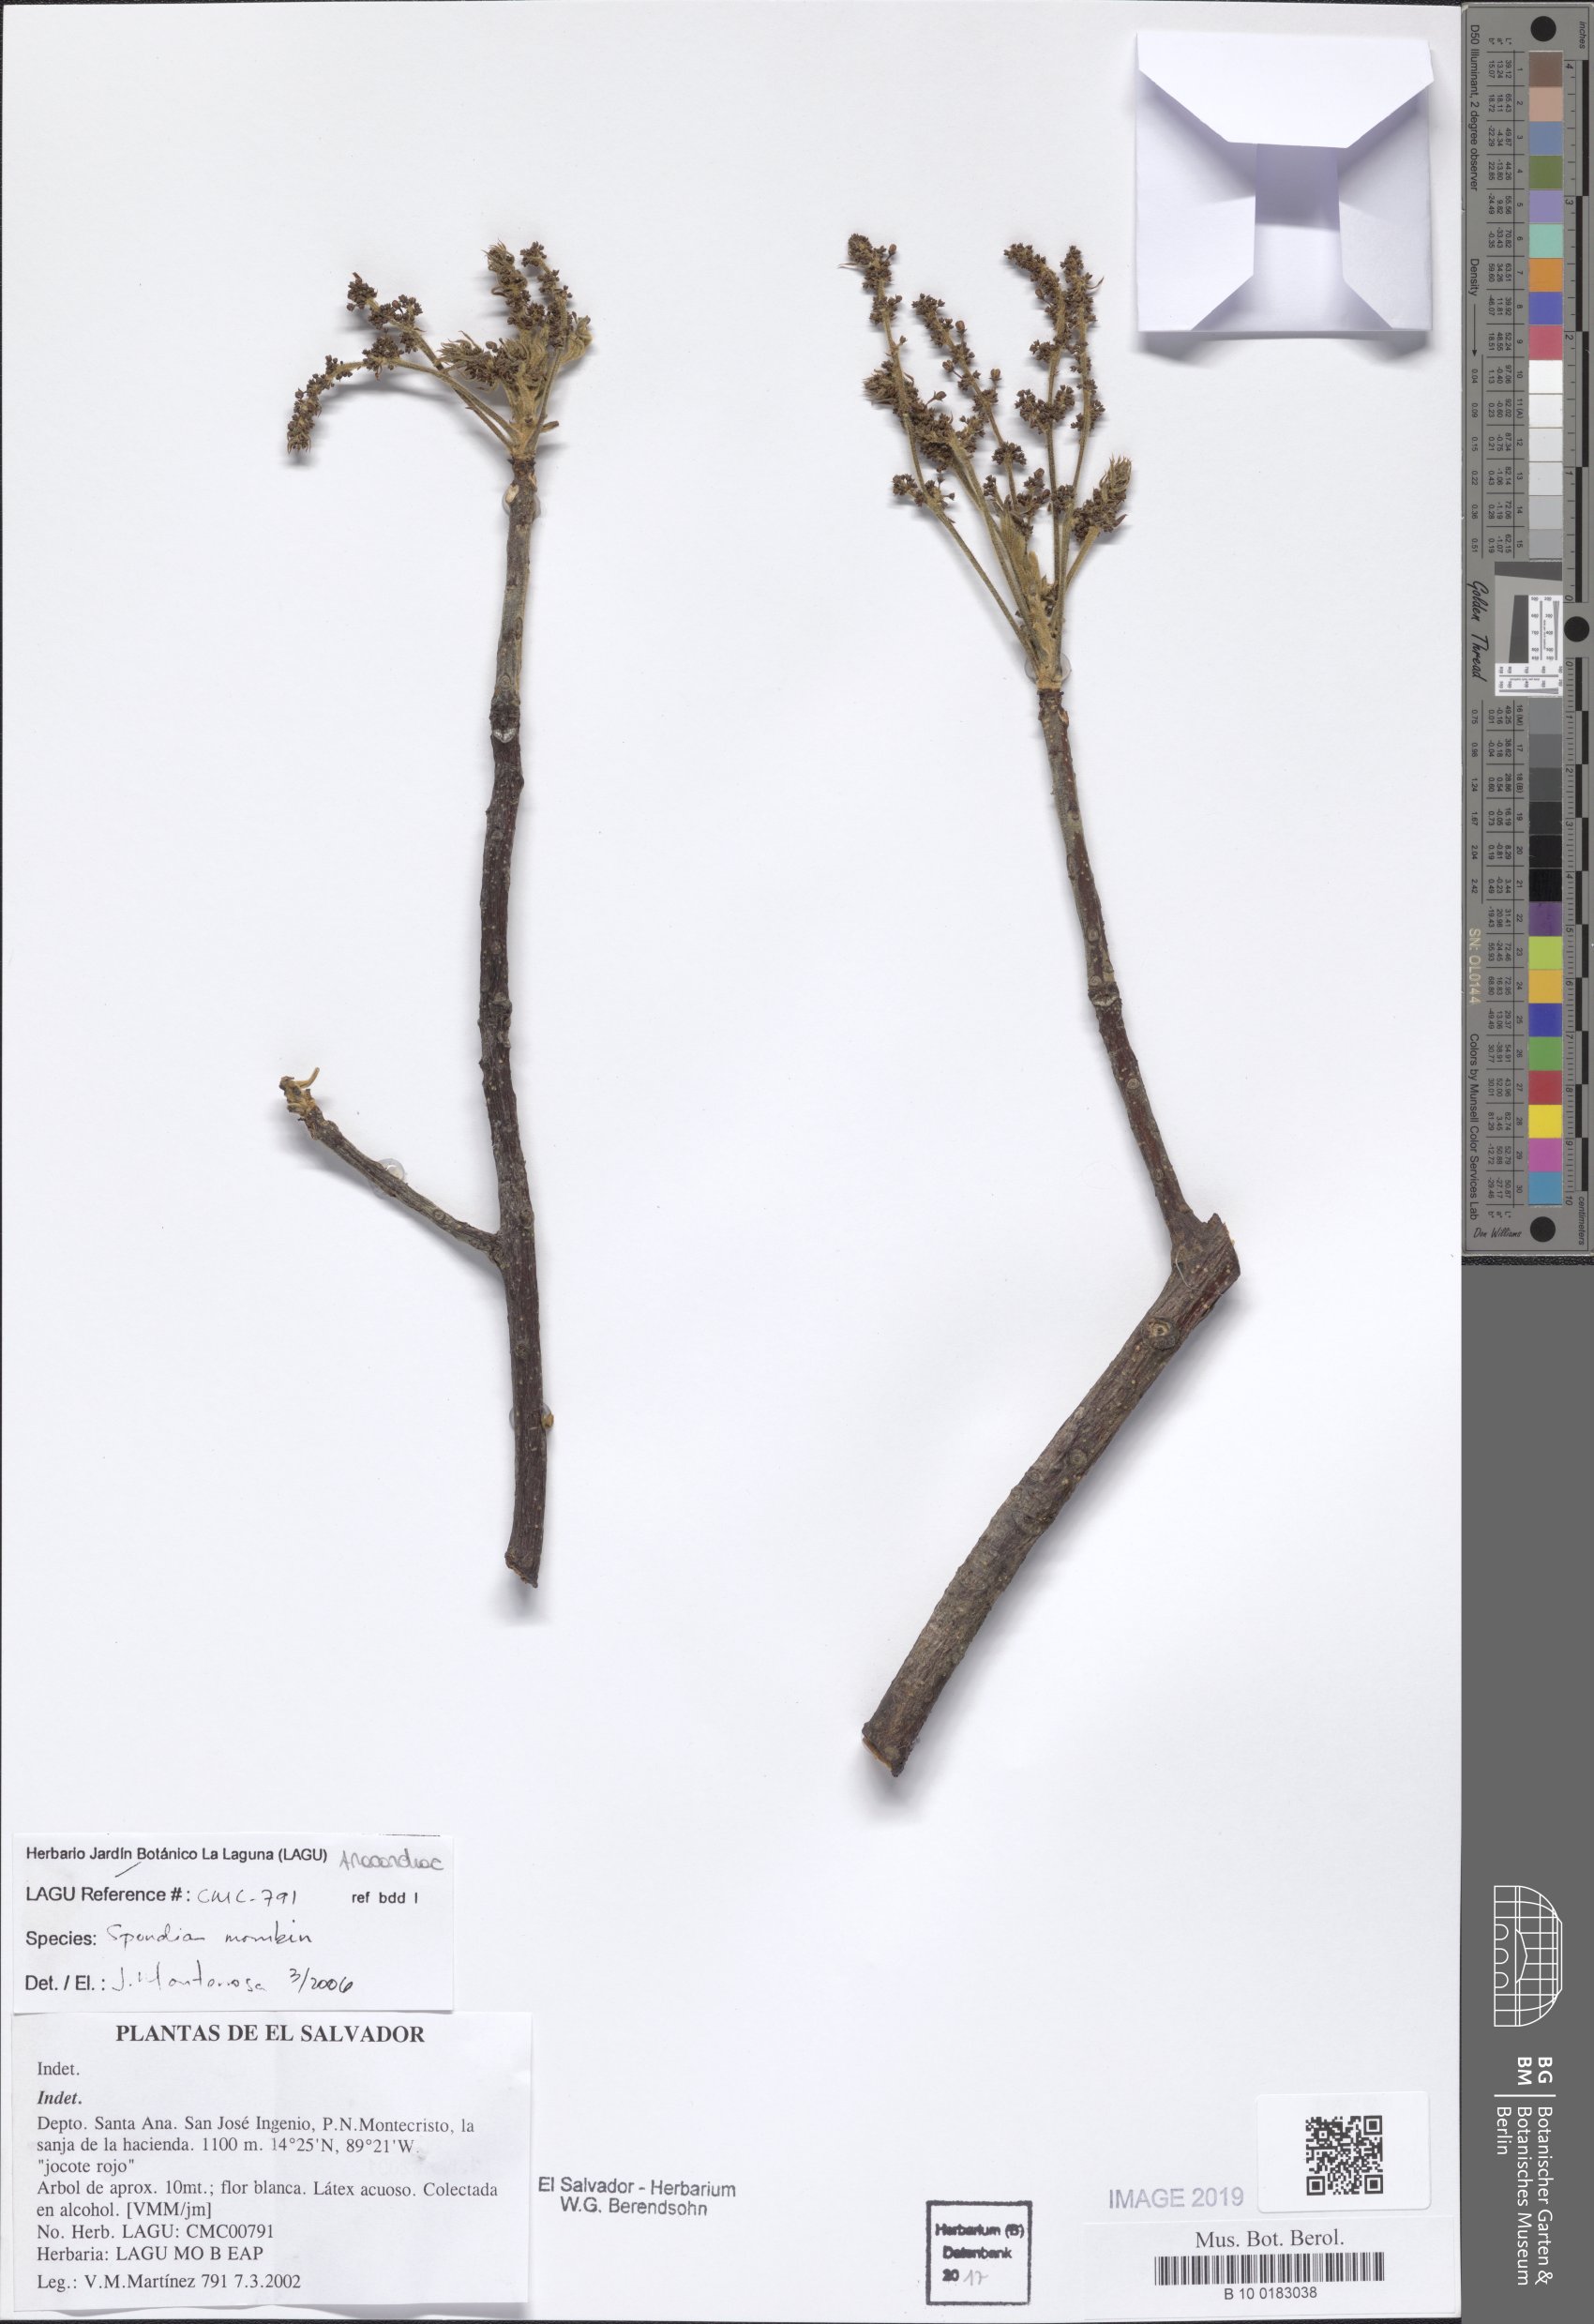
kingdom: Plantae
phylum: Tracheophyta
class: Magnoliopsida
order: Sapindales
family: Anacardiaceae
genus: Spondias
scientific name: Spondias mombin
